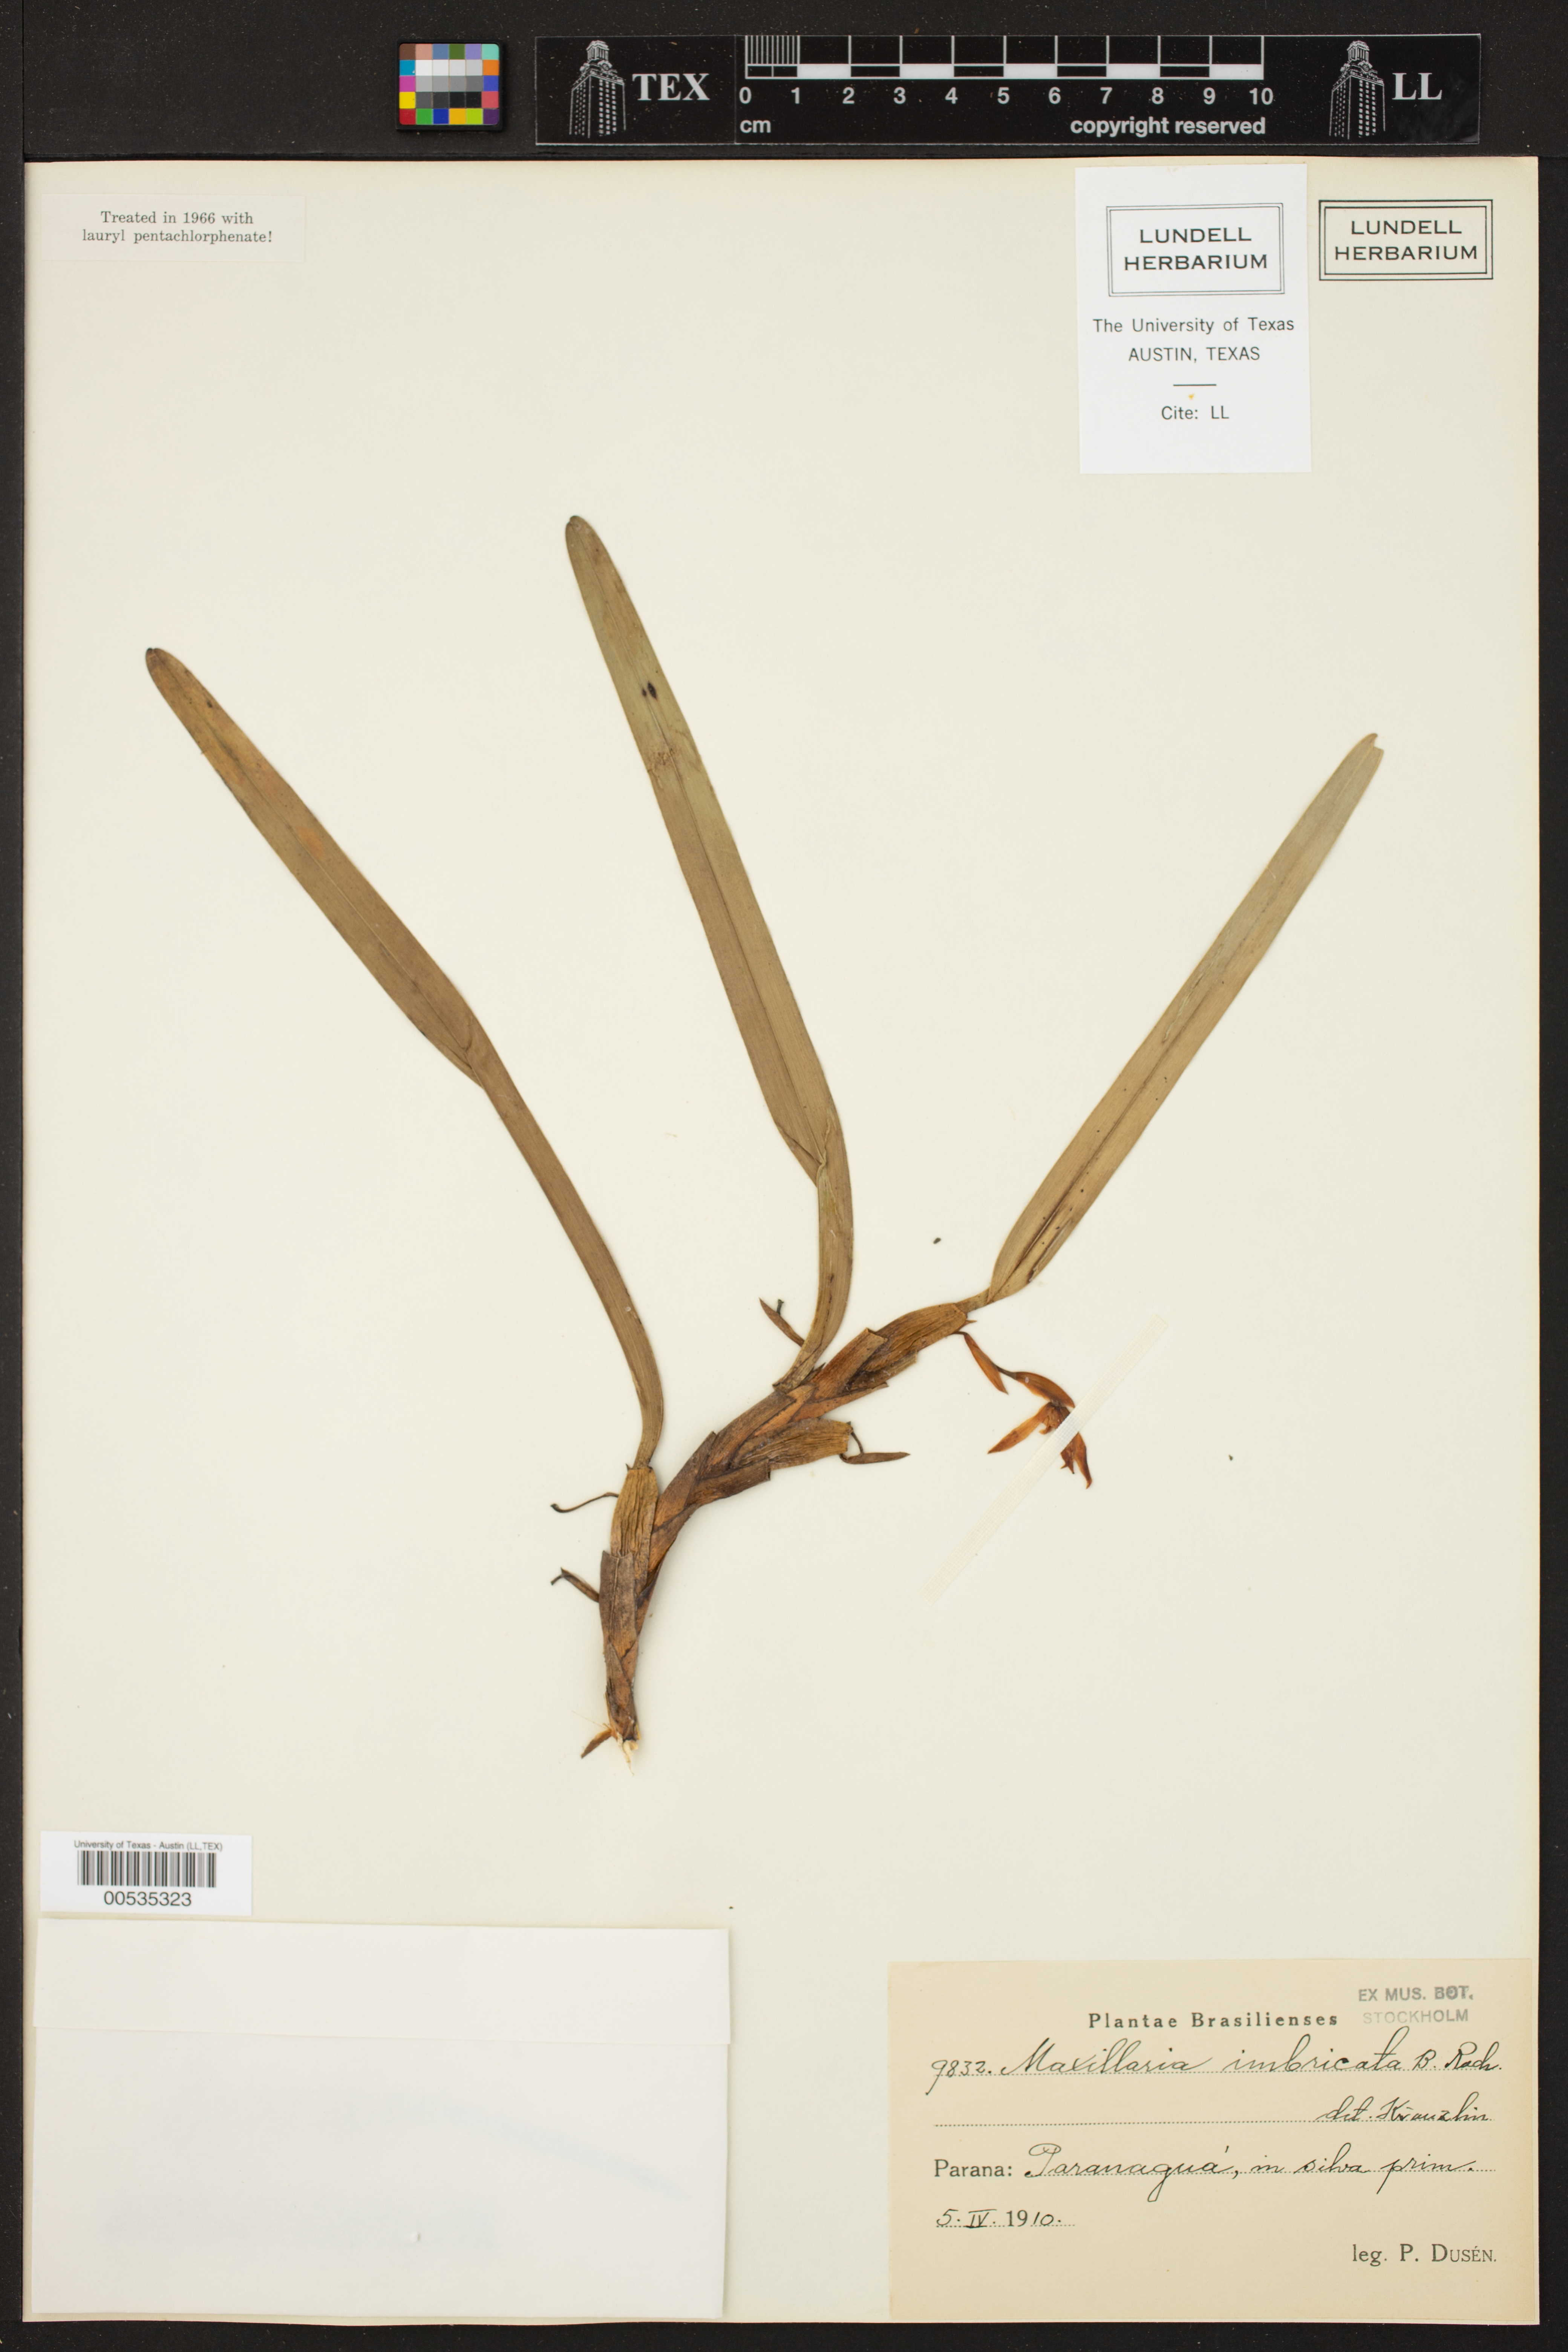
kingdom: Plantae
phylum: Tracheophyta
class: Liliopsida
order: Asparagales
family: Orchidaceae
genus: Maxillaria
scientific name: Maxillaria imbricata
